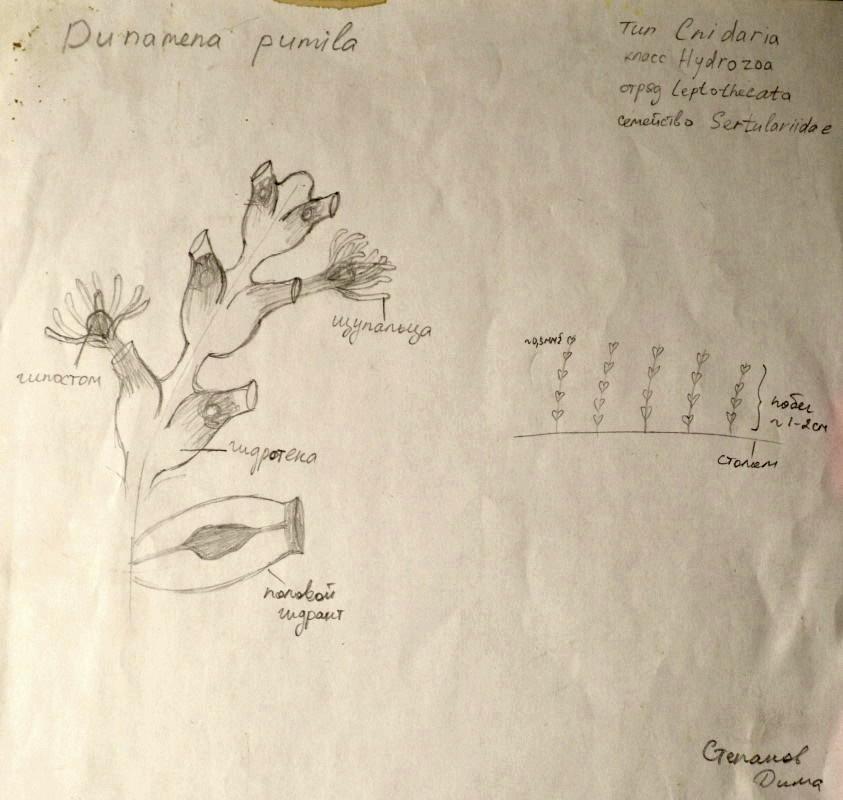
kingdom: Animalia
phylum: Cnidaria
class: Hydrozoa
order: Leptothecata
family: Sertulariidae
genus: Dynamena
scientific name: Dynamena pumila
